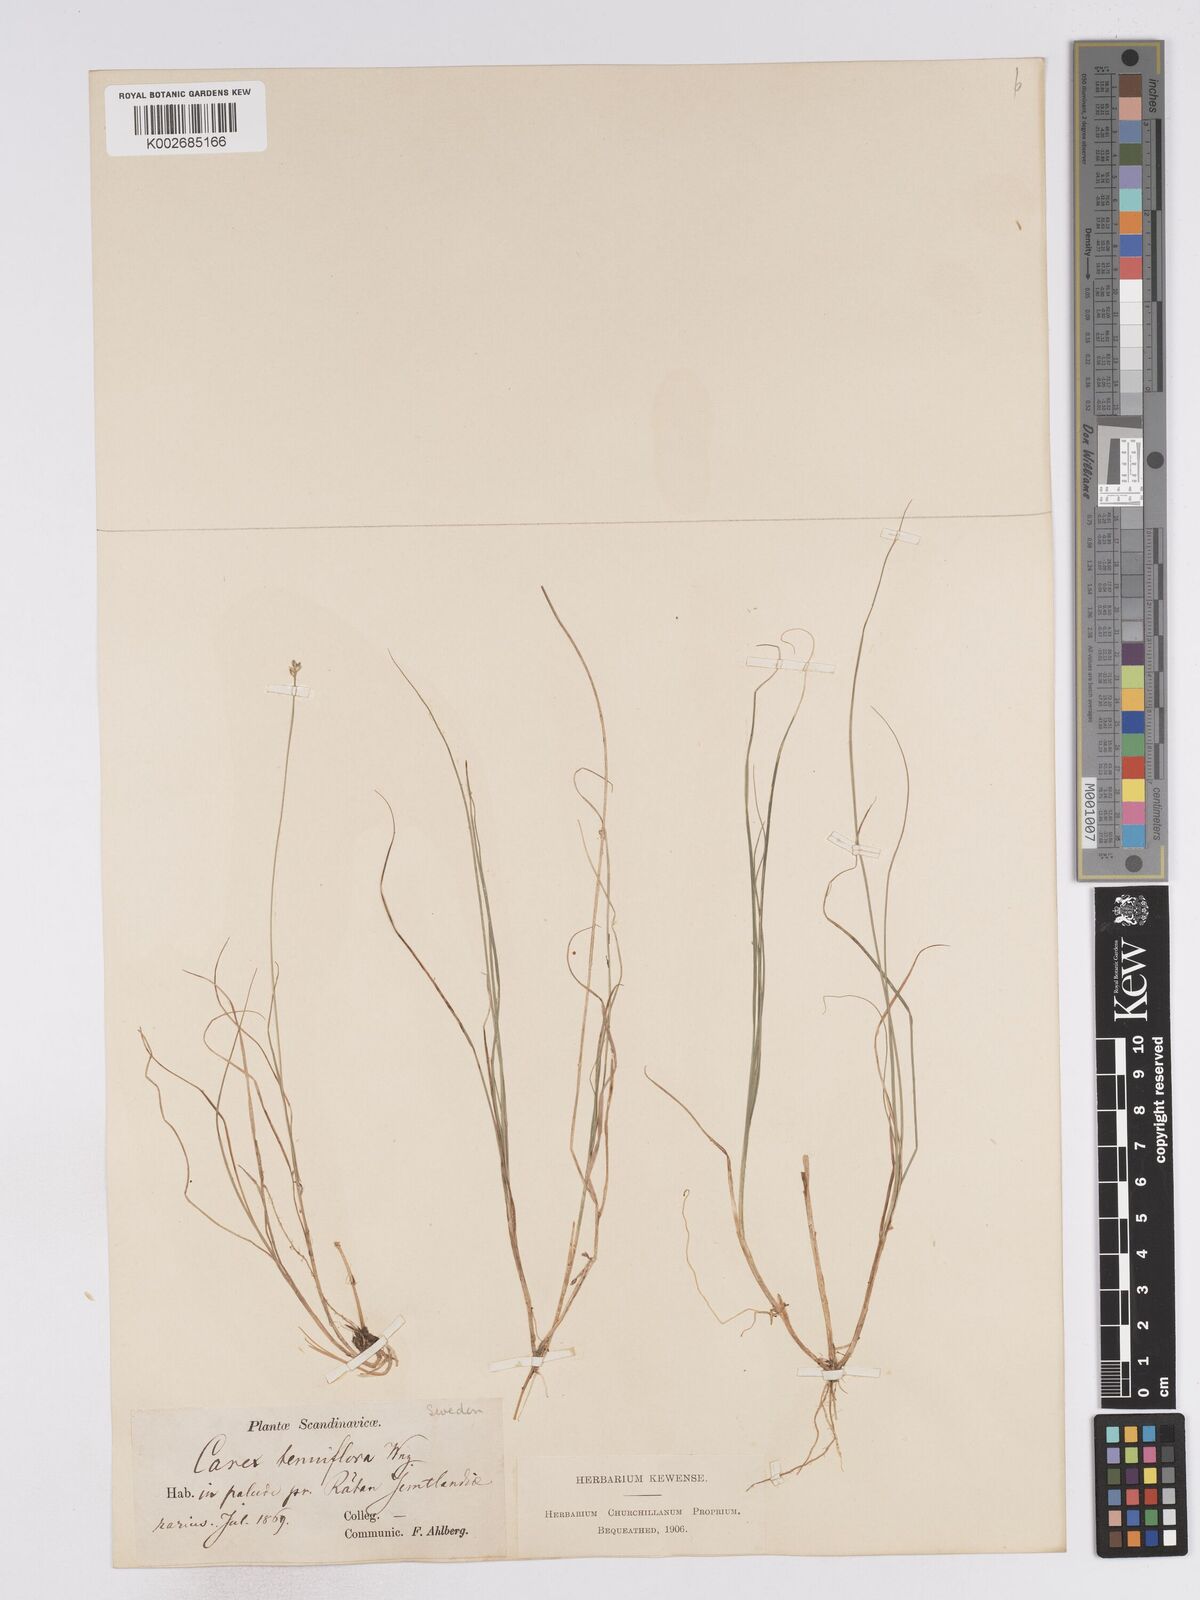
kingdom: Plantae
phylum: Tracheophyta
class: Liliopsida
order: Poales
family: Cyperaceae
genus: Carex
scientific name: Carex tenuiflora
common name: Sparse-flowered sedge
